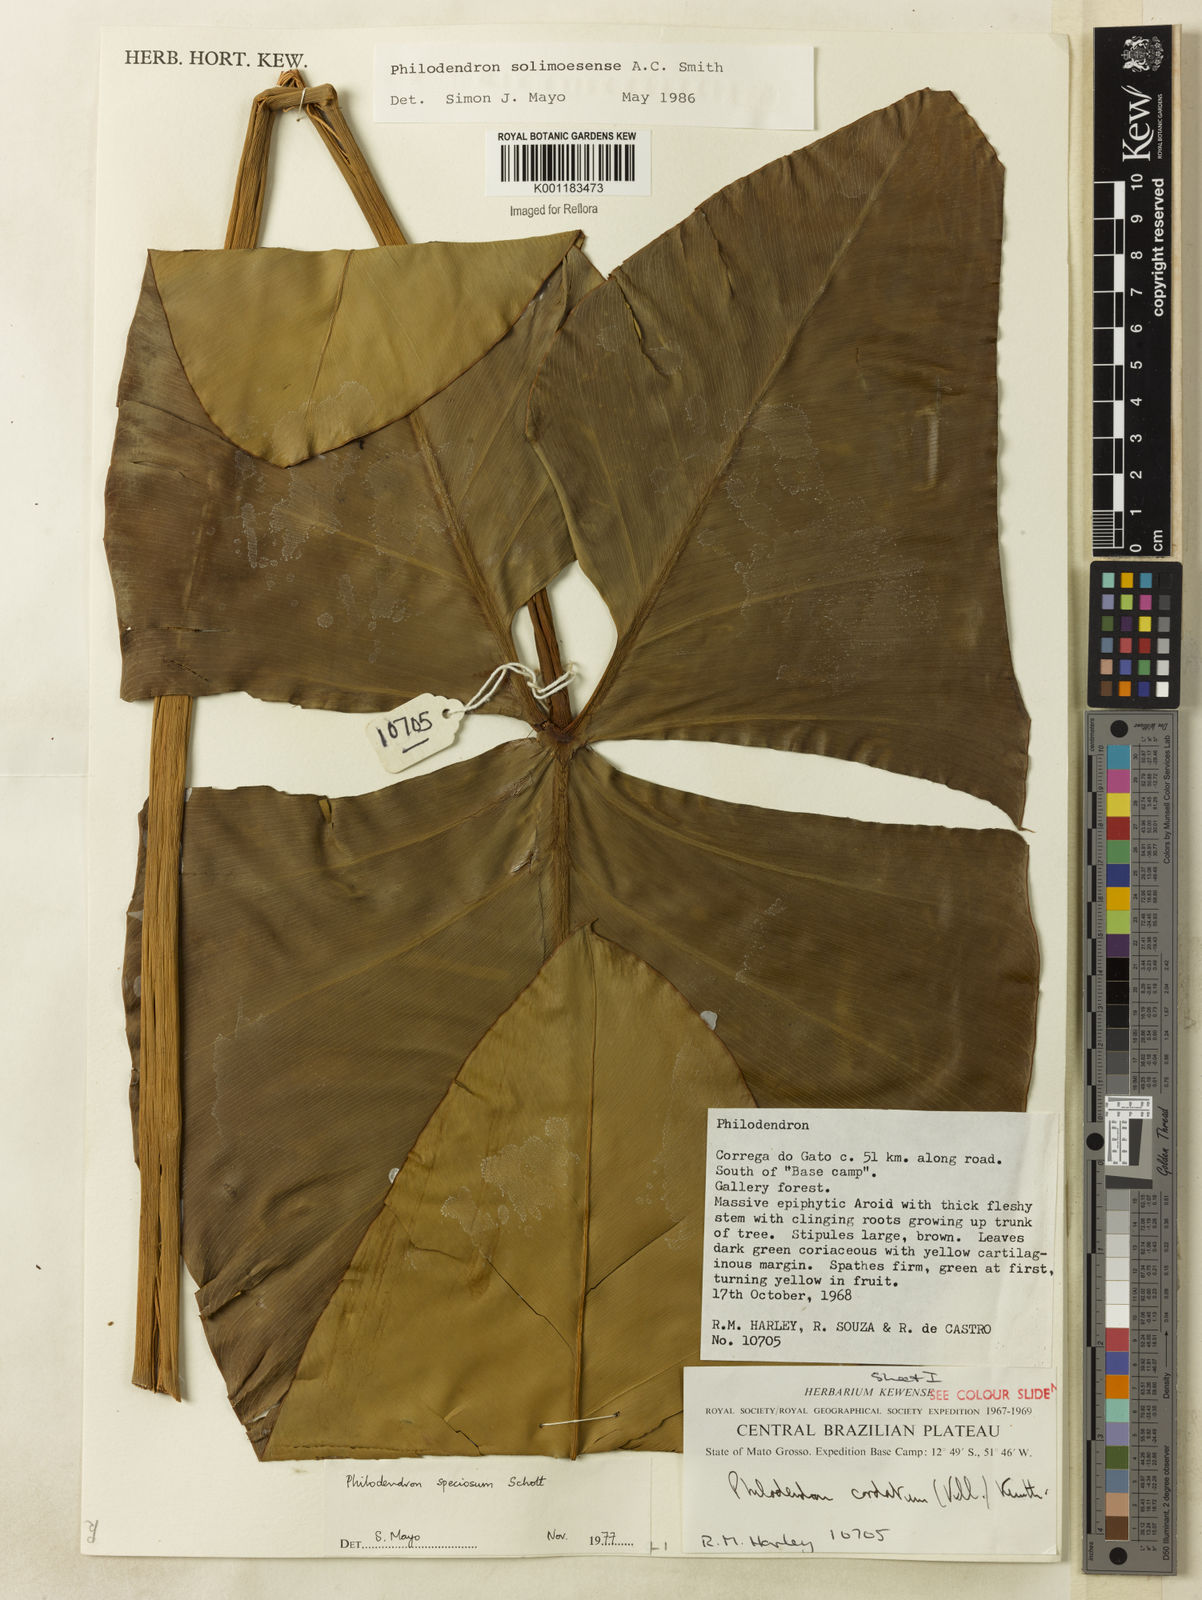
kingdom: Plantae
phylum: Tracheophyta
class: Liliopsida
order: Alismatales
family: Araceae
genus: Thaumatophyllum
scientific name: Thaumatophyllum solimoesense
